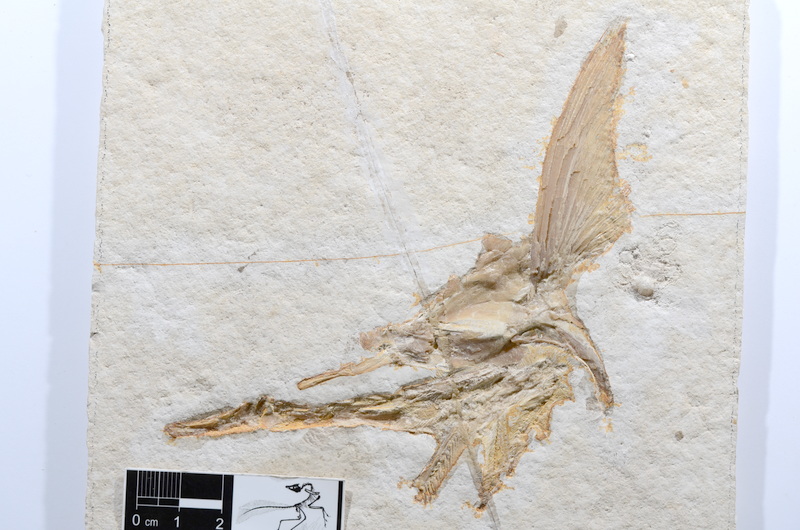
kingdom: Animalia
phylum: Chordata
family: Aspidorhynchidae
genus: Aspidorhynchus
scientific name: Aspidorhynchus acutirostris
